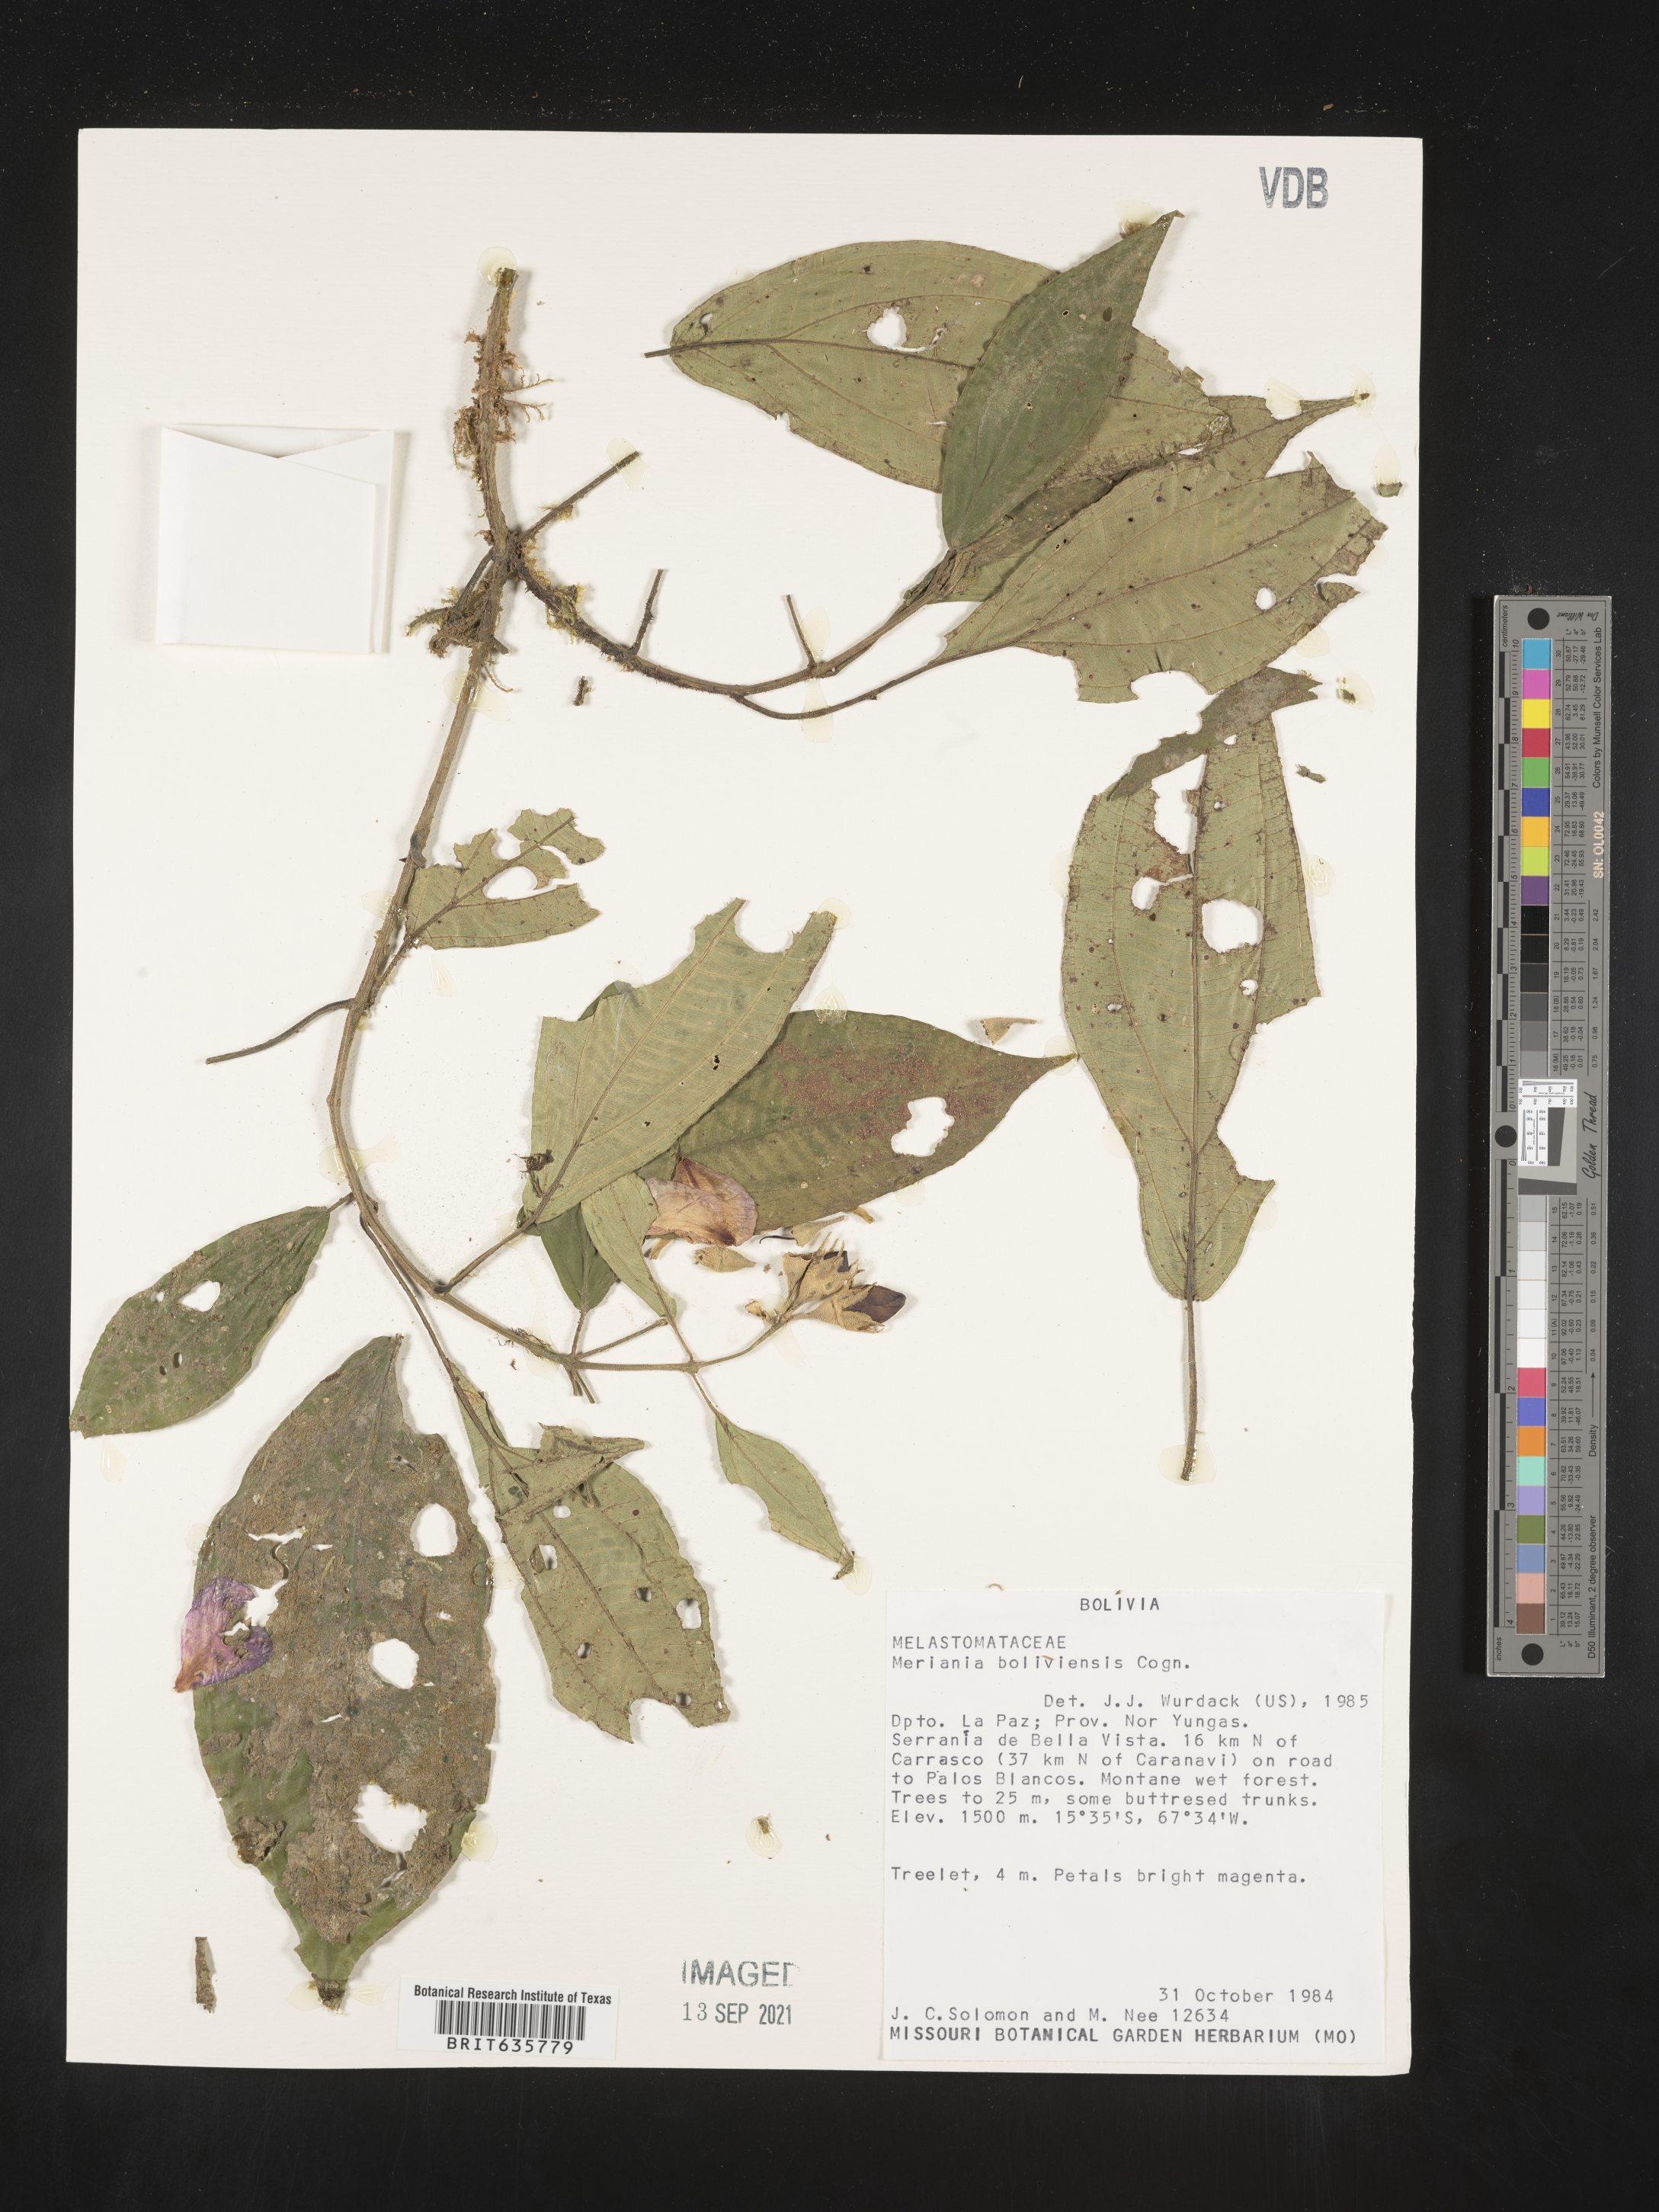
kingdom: Plantae
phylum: Tracheophyta
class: Magnoliopsida
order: Myrtales
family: Melastomataceae
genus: Meriania
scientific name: Meriania
